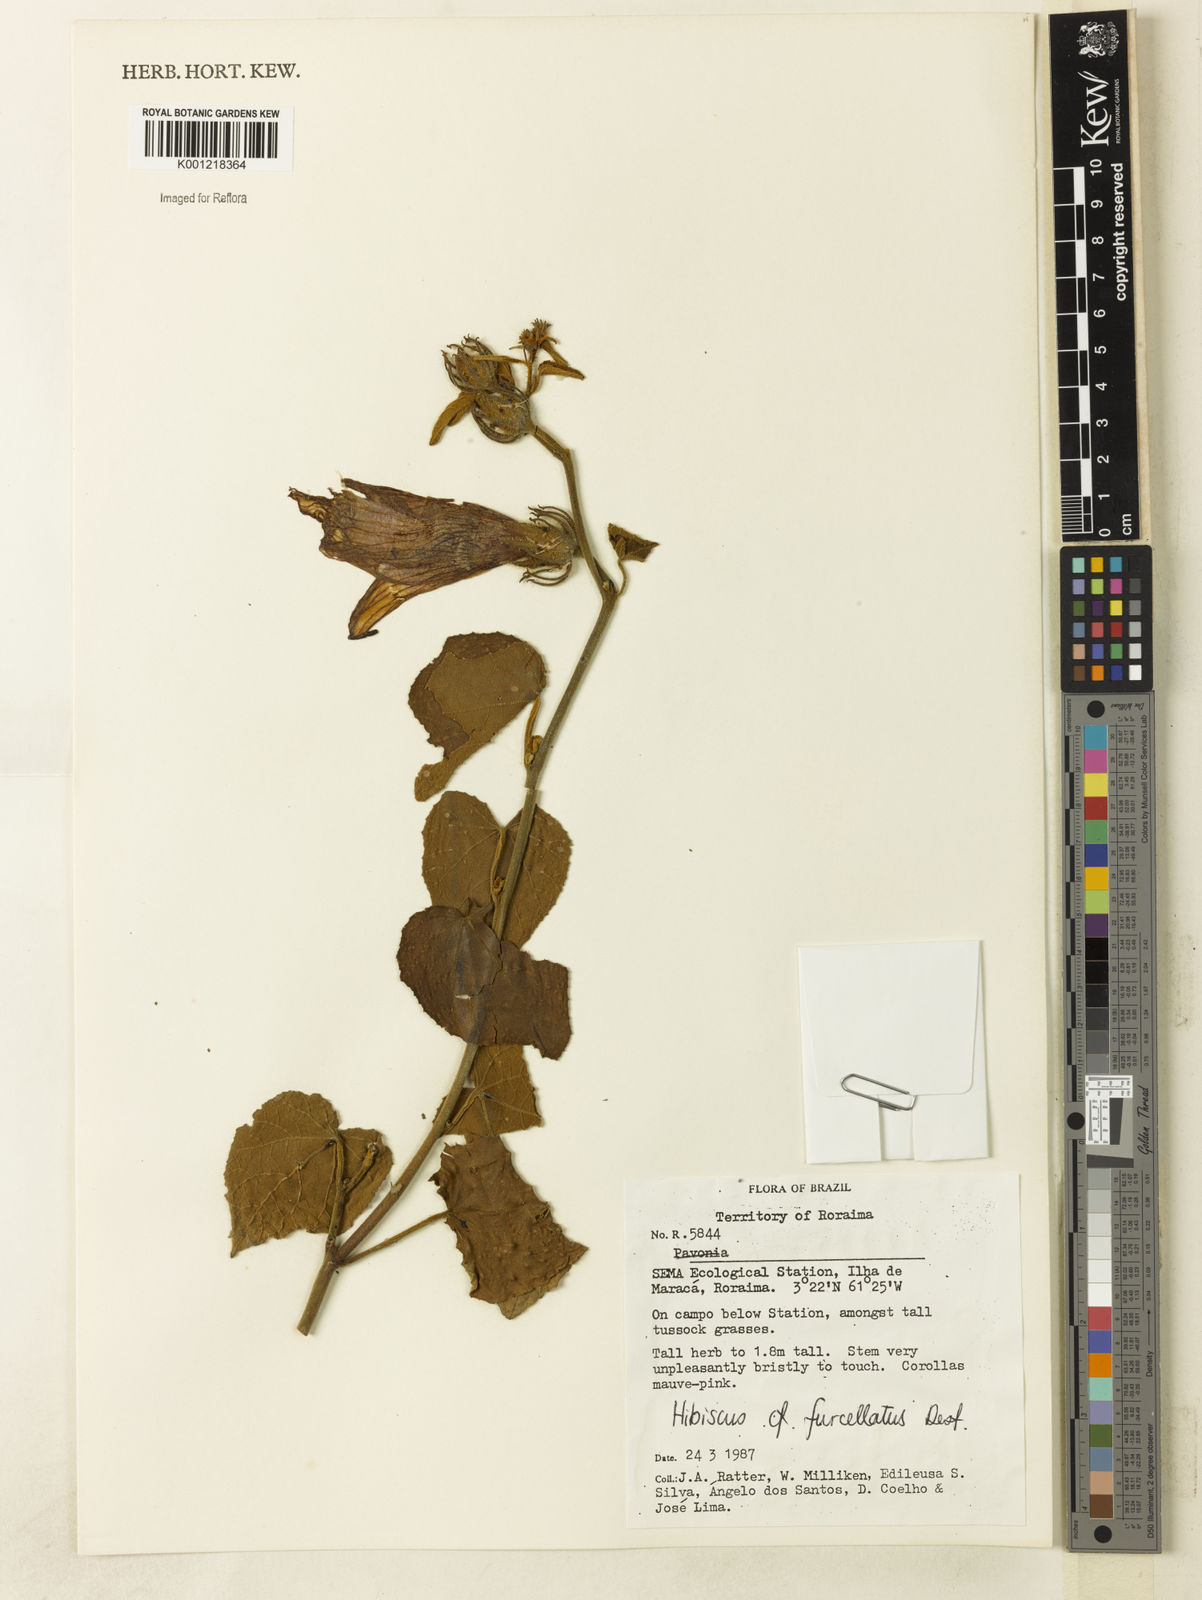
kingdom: Plantae
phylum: Tracheophyta
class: Magnoliopsida
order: Malvales
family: Malvaceae
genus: Hibiscus
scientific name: Hibiscus furcellatus
